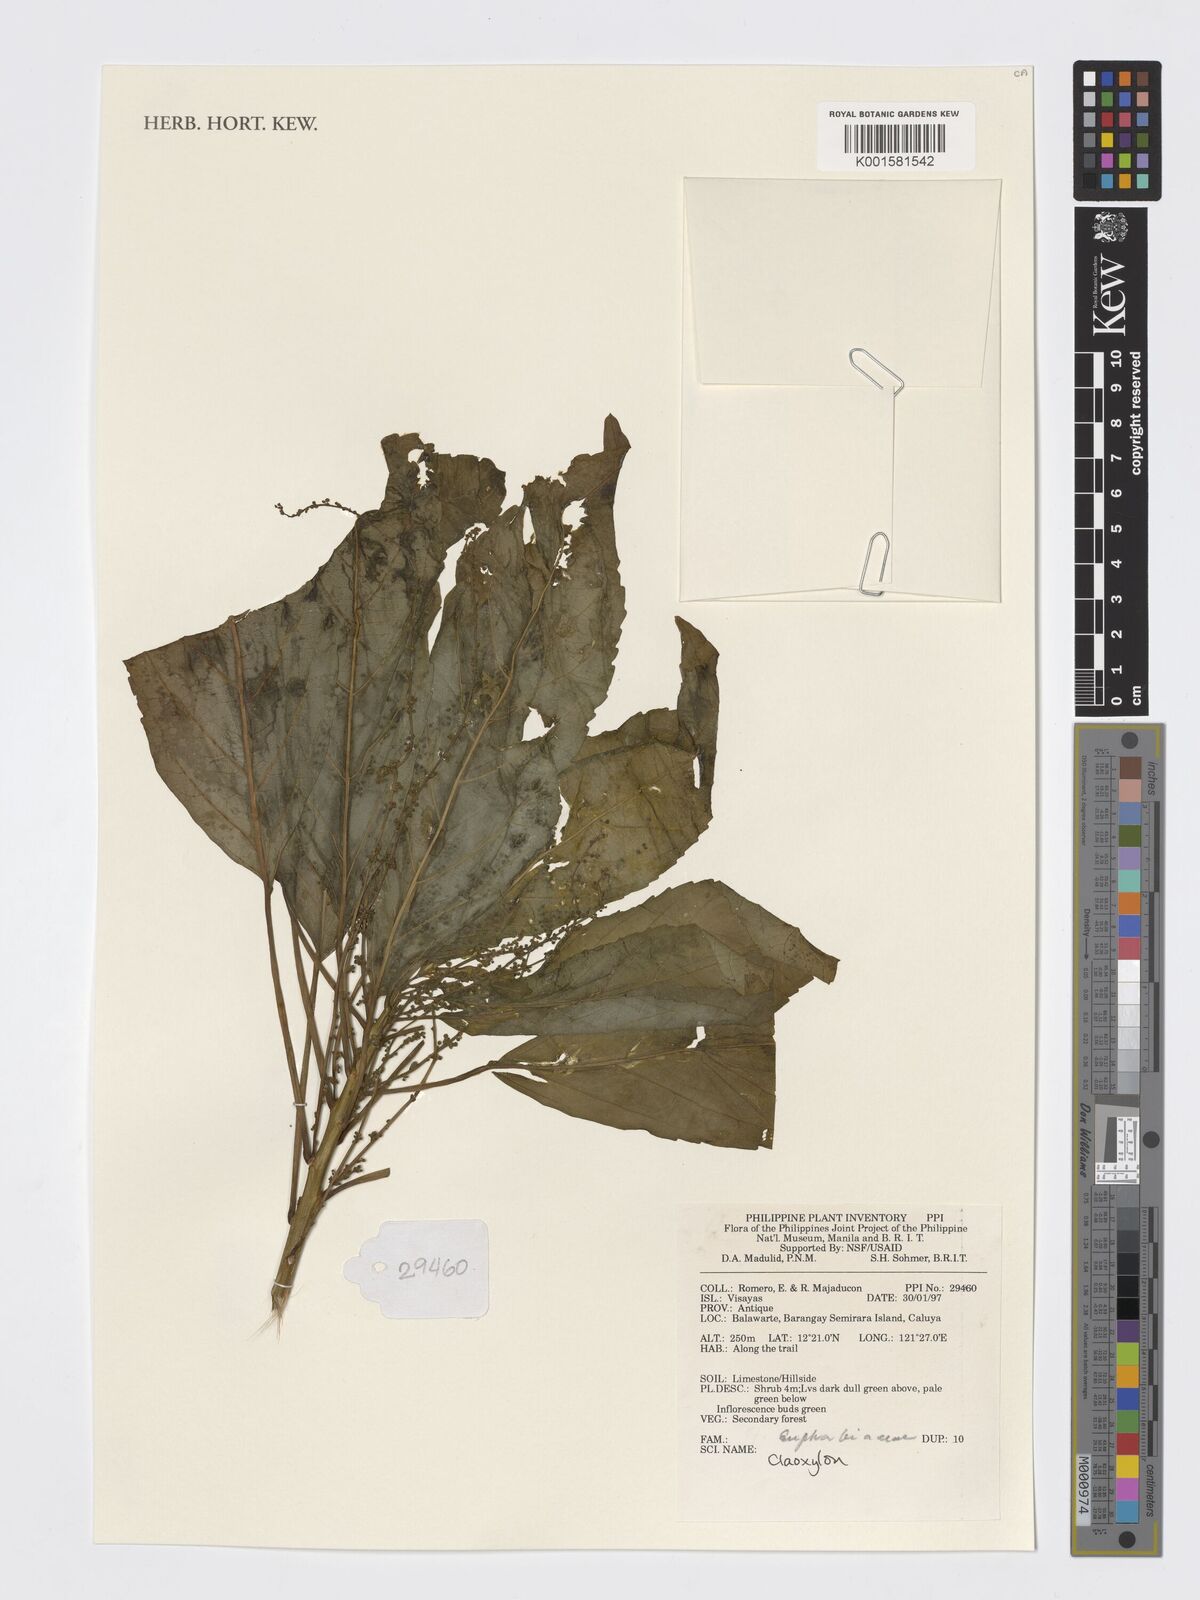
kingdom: Plantae
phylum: Tracheophyta
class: Magnoliopsida
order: Malpighiales
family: Euphorbiaceae
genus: Claoxylon
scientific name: Claoxylon
